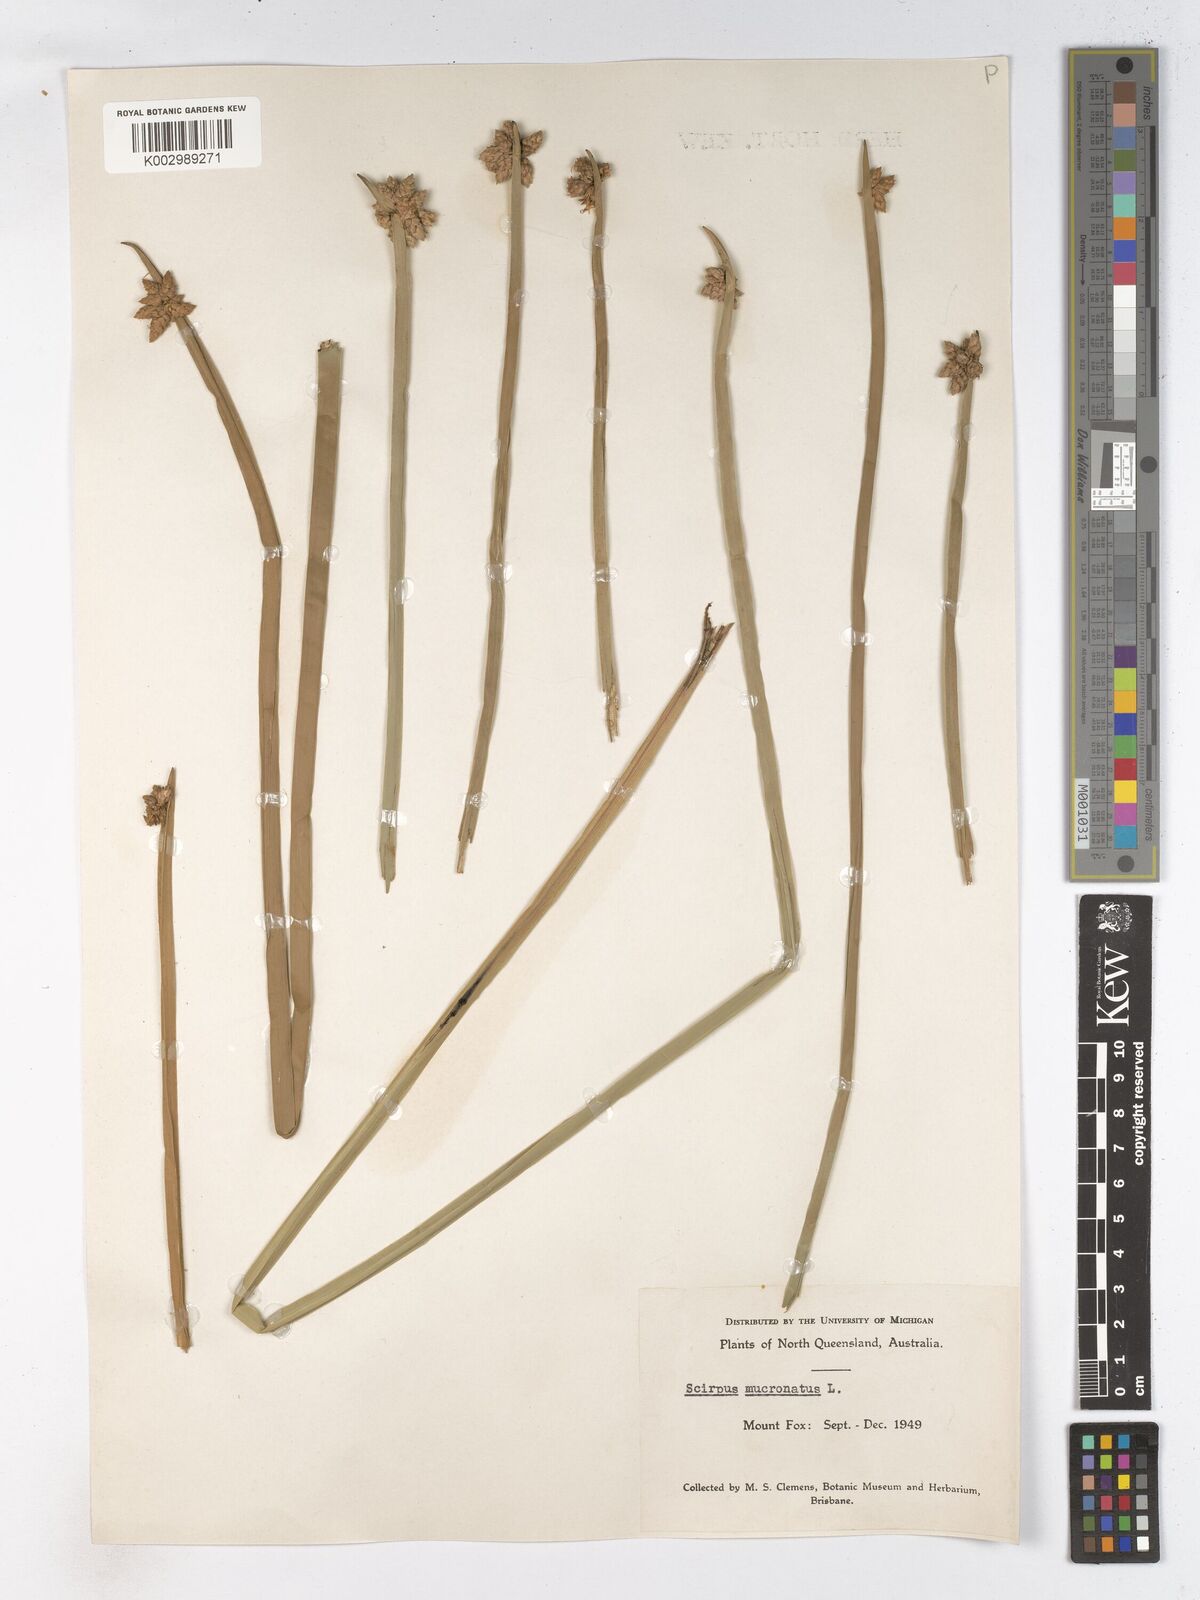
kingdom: Plantae
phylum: Tracheophyta
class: Liliopsida
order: Poales
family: Cyperaceae
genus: Schoenoplectiella
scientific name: Schoenoplectiella mucronata
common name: Bog bulrush
